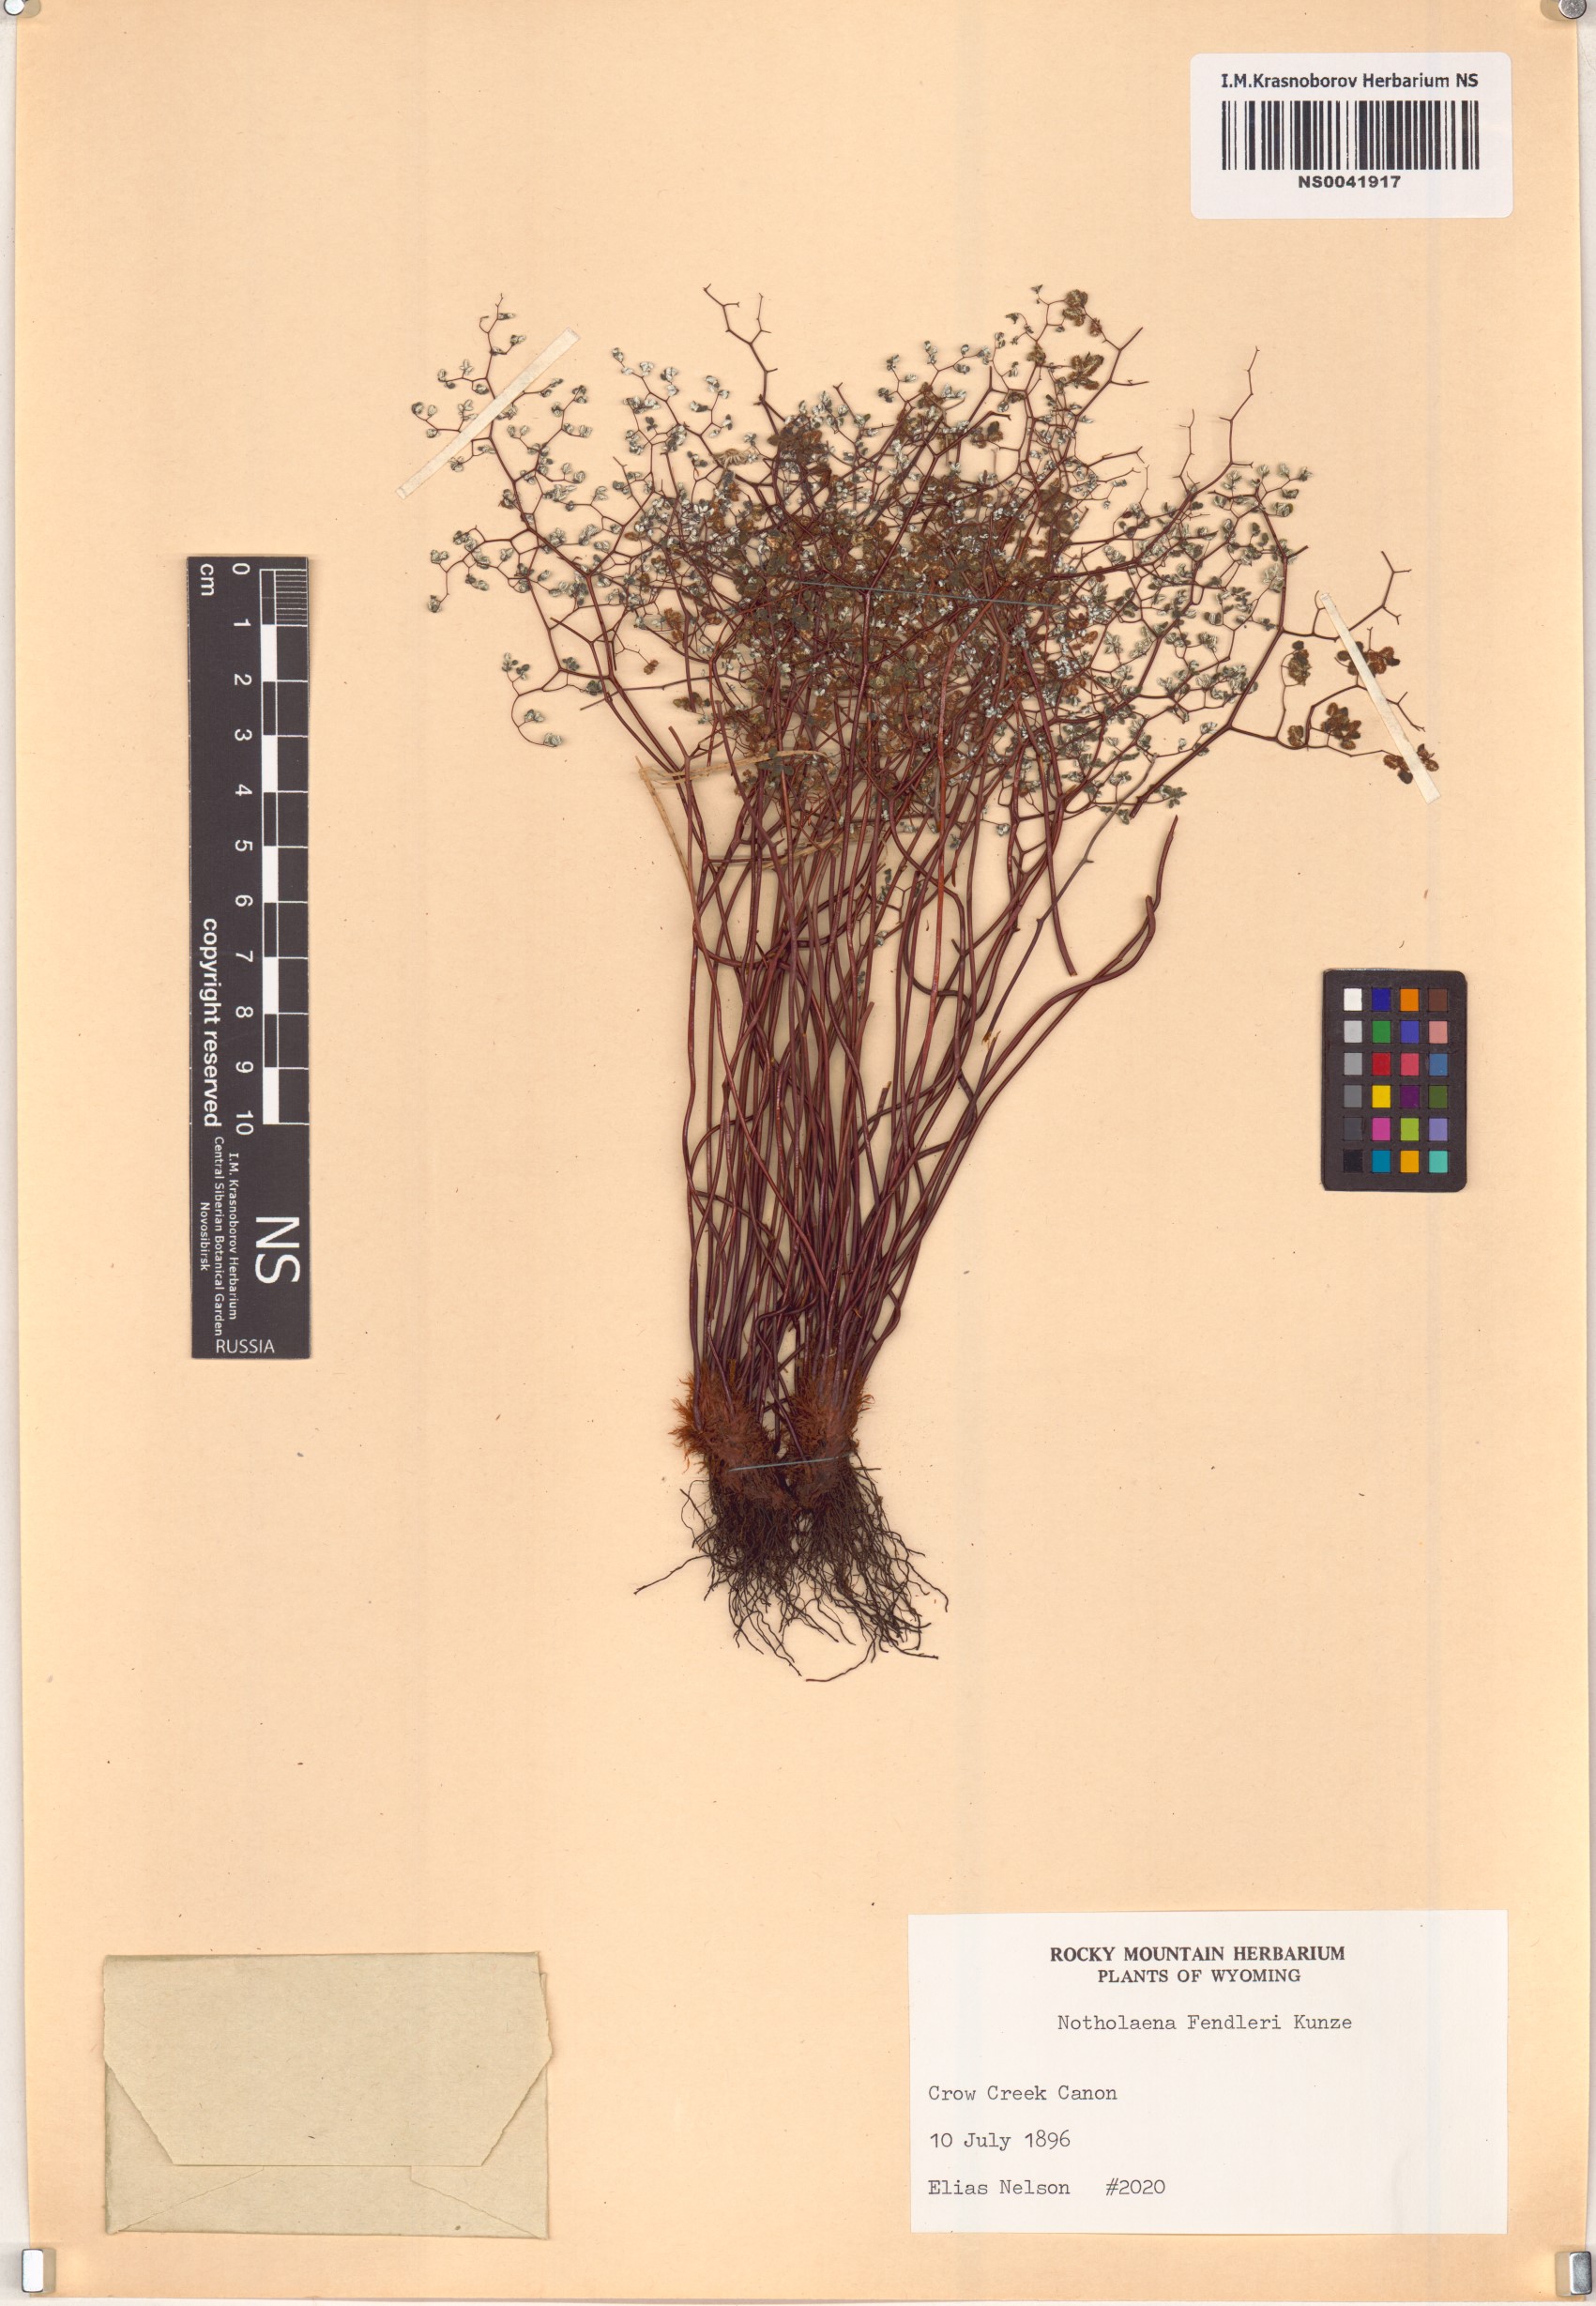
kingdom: Plantae
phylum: Tracheophyta
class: Polypodiopsida
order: Polypodiales
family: Pteridaceae
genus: Argyrochosma
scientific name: Argyrochosma fendleri
